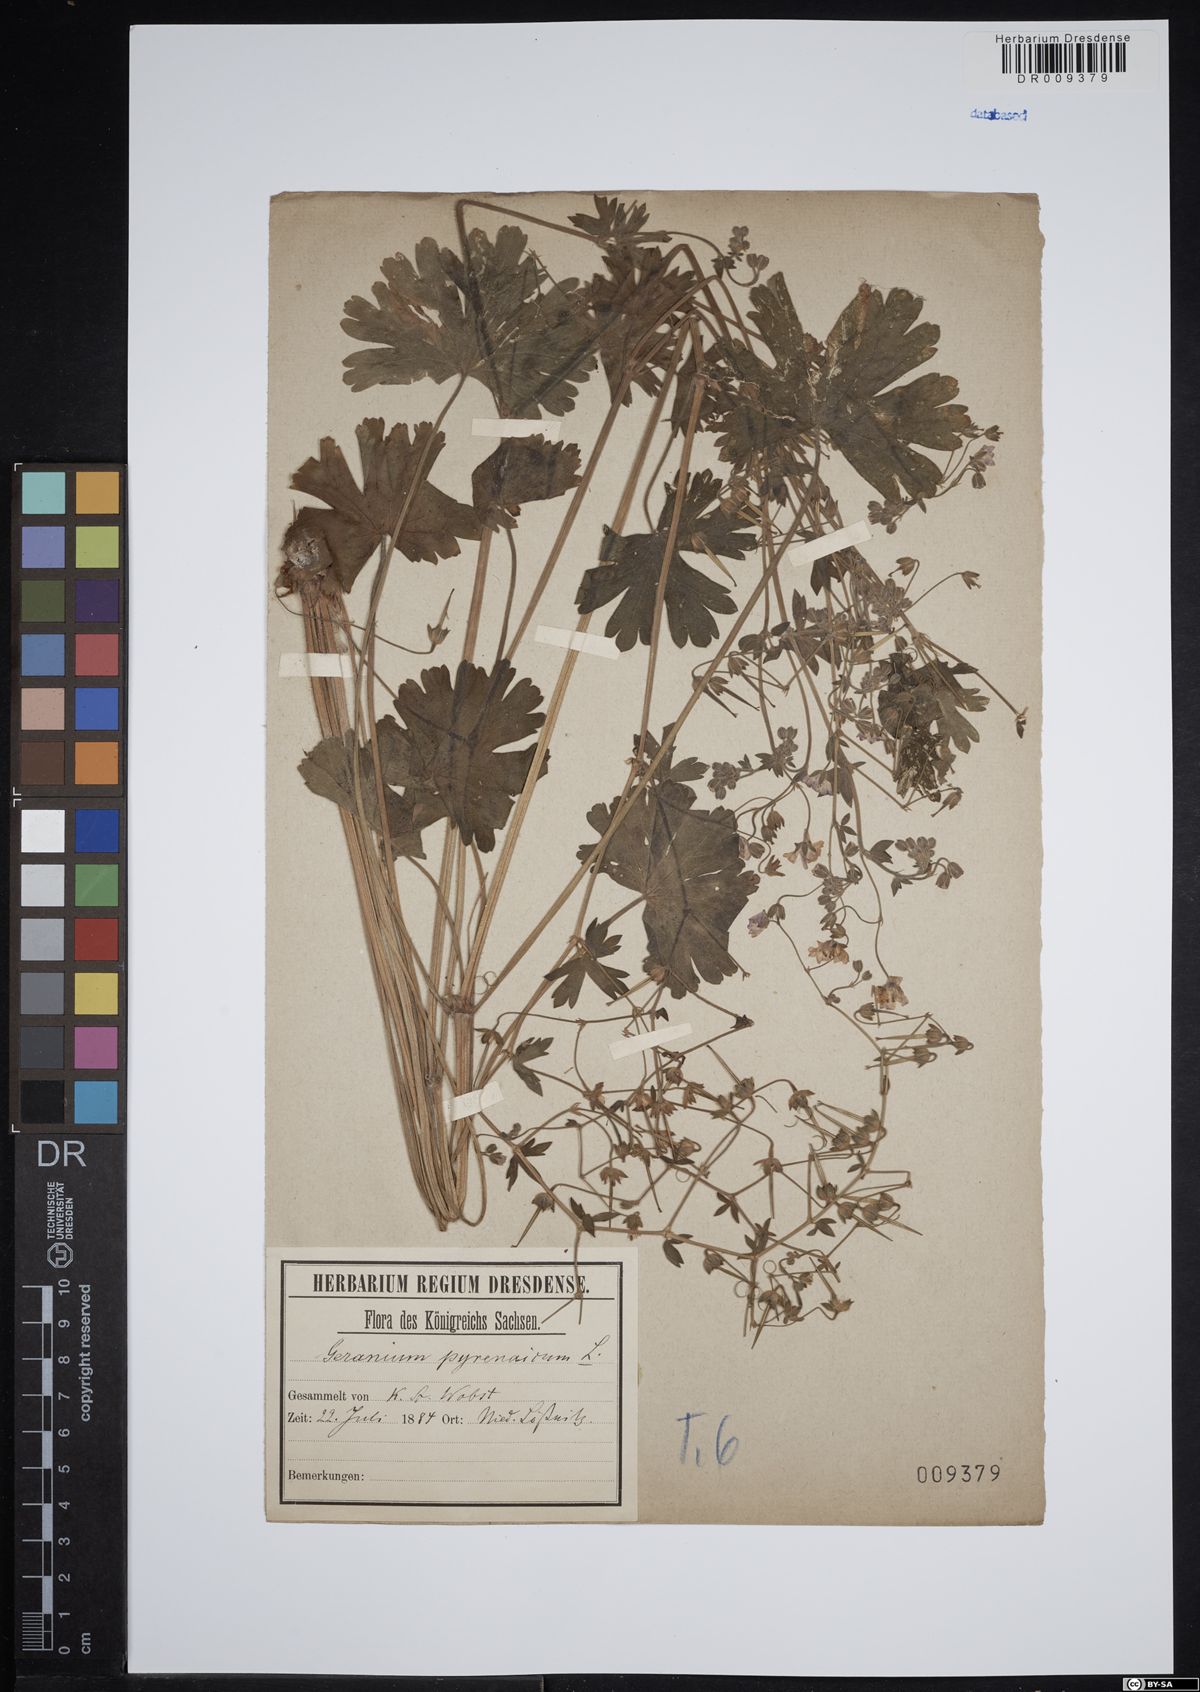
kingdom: Plantae
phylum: Tracheophyta
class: Magnoliopsida
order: Geraniales
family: Geraniaceae
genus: Geranium
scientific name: Geranium pyrenaicum
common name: Hedgerow crane's-bill
